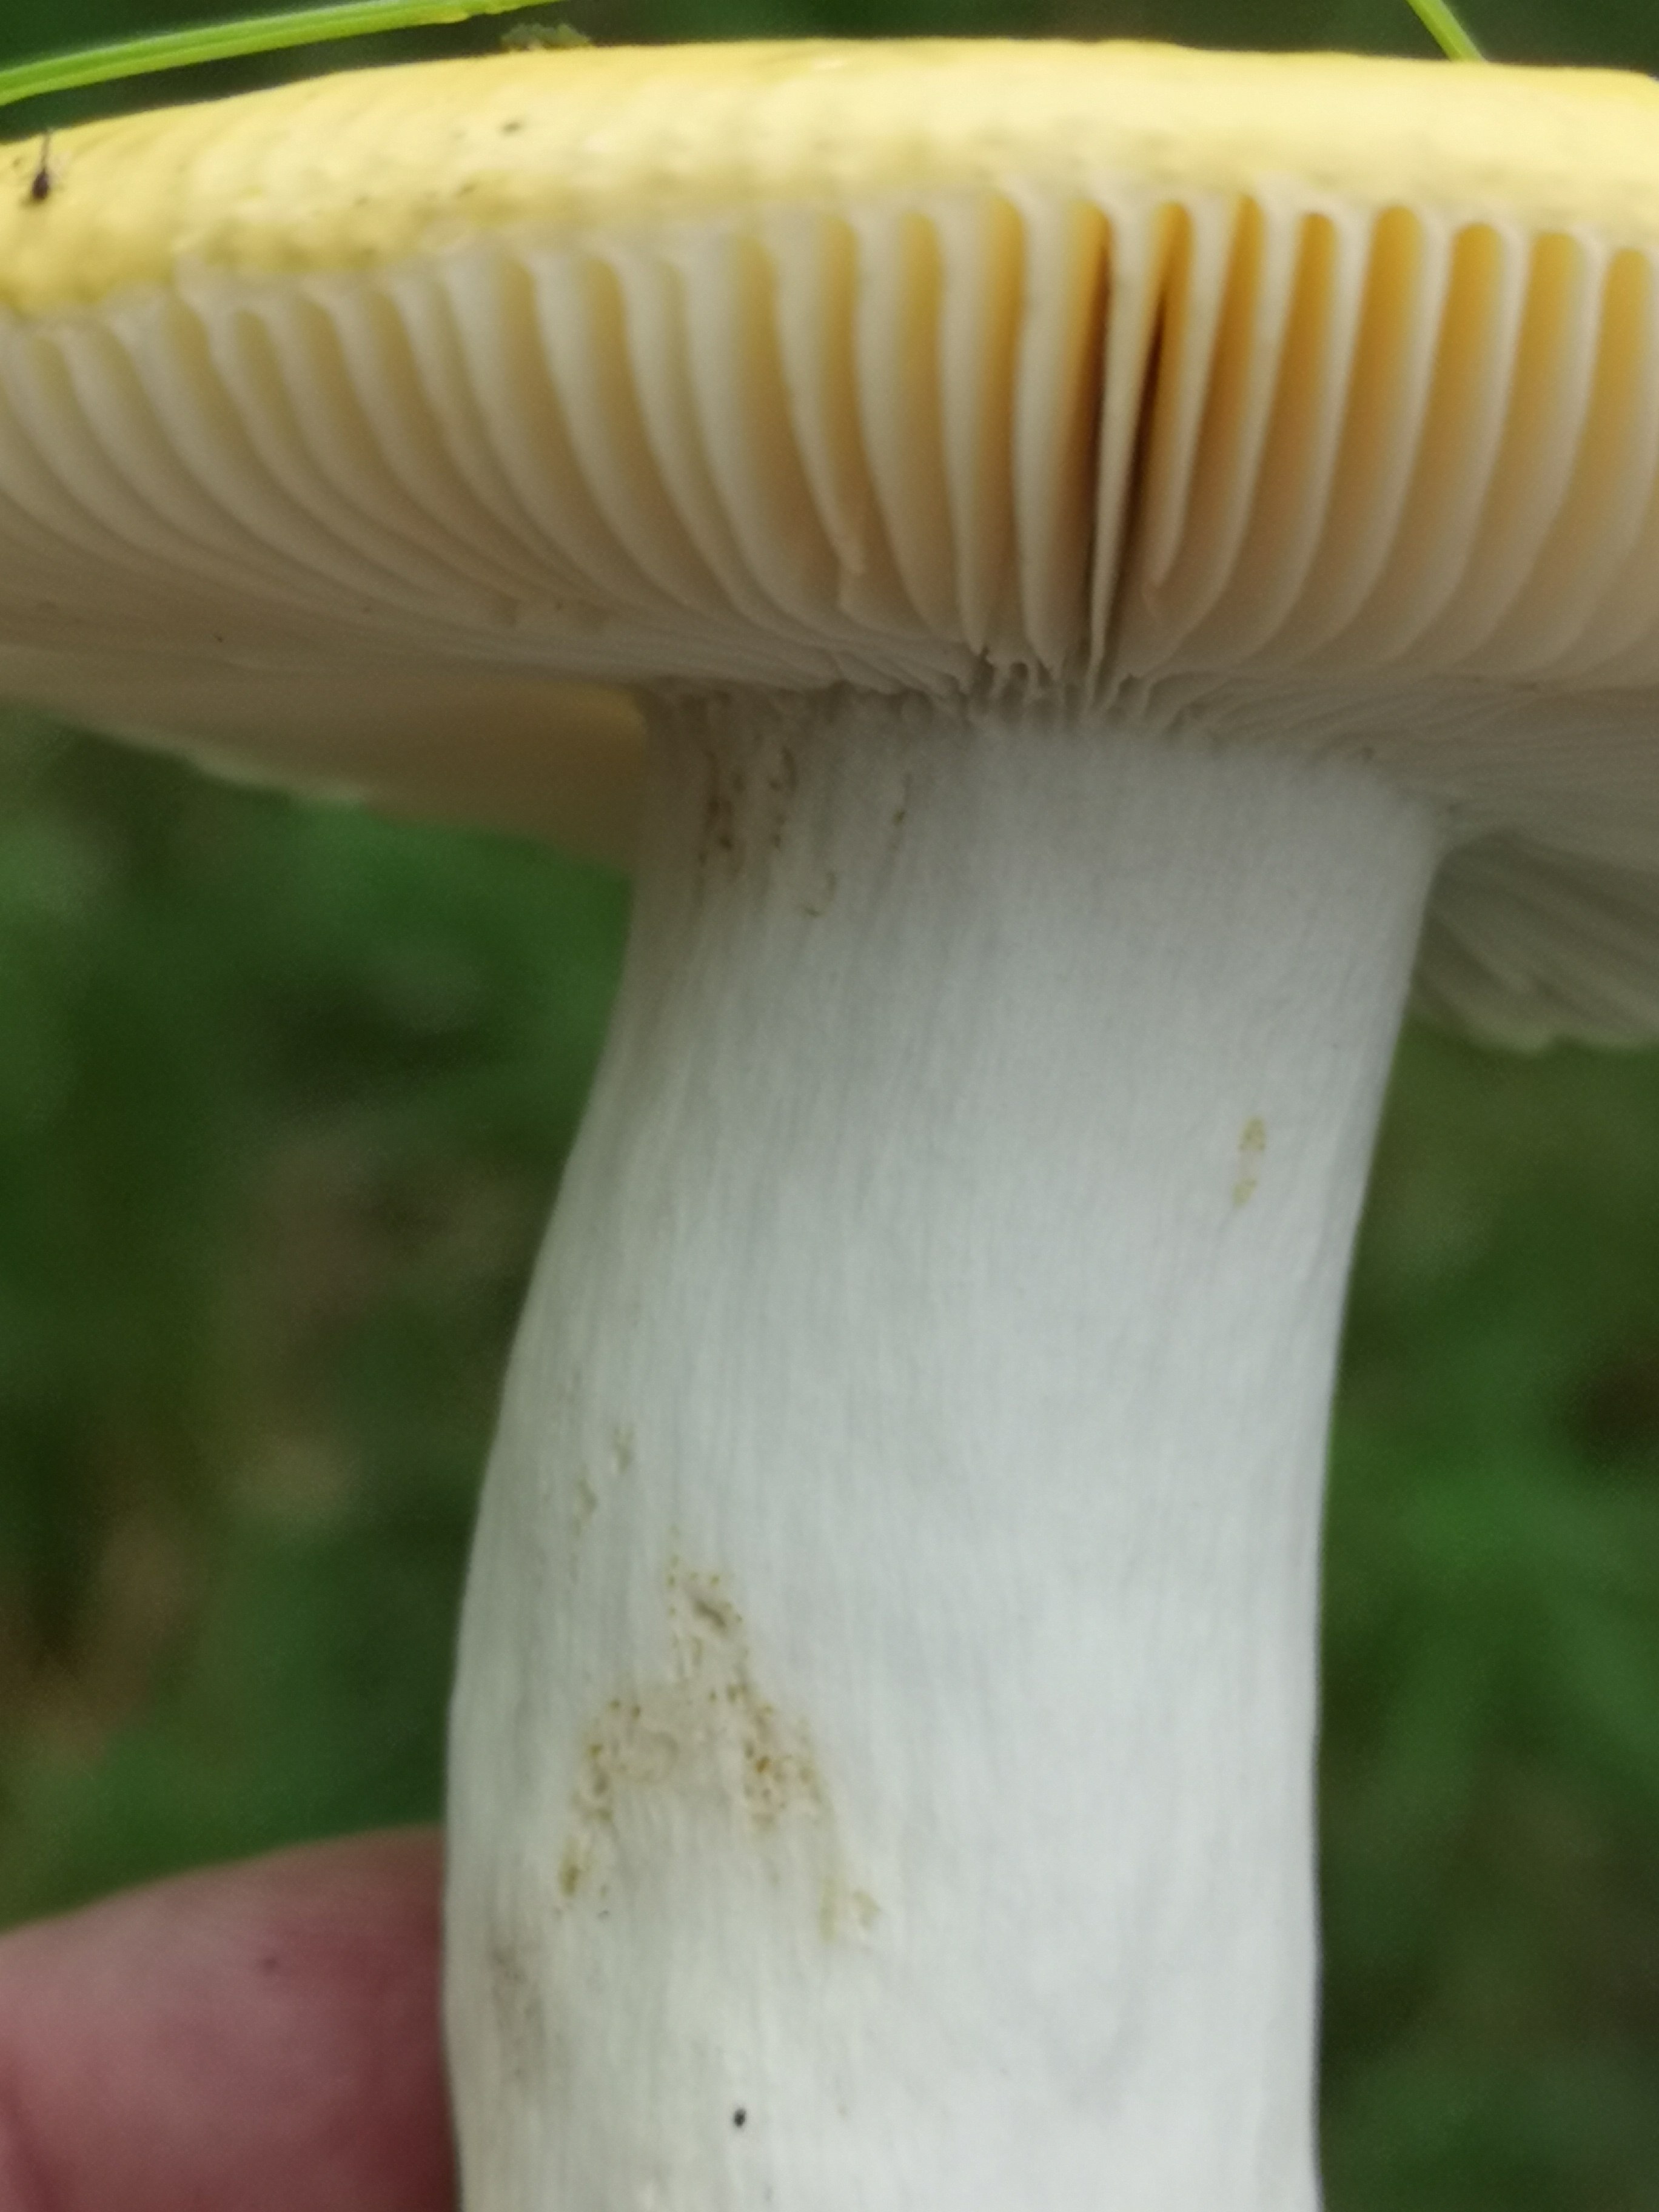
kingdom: Fungi
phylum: Basidiomycota
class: Agaricomycetes
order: Russulales
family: Russulaceae
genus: Russula
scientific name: Russula claroflava
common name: birke-skørhat
